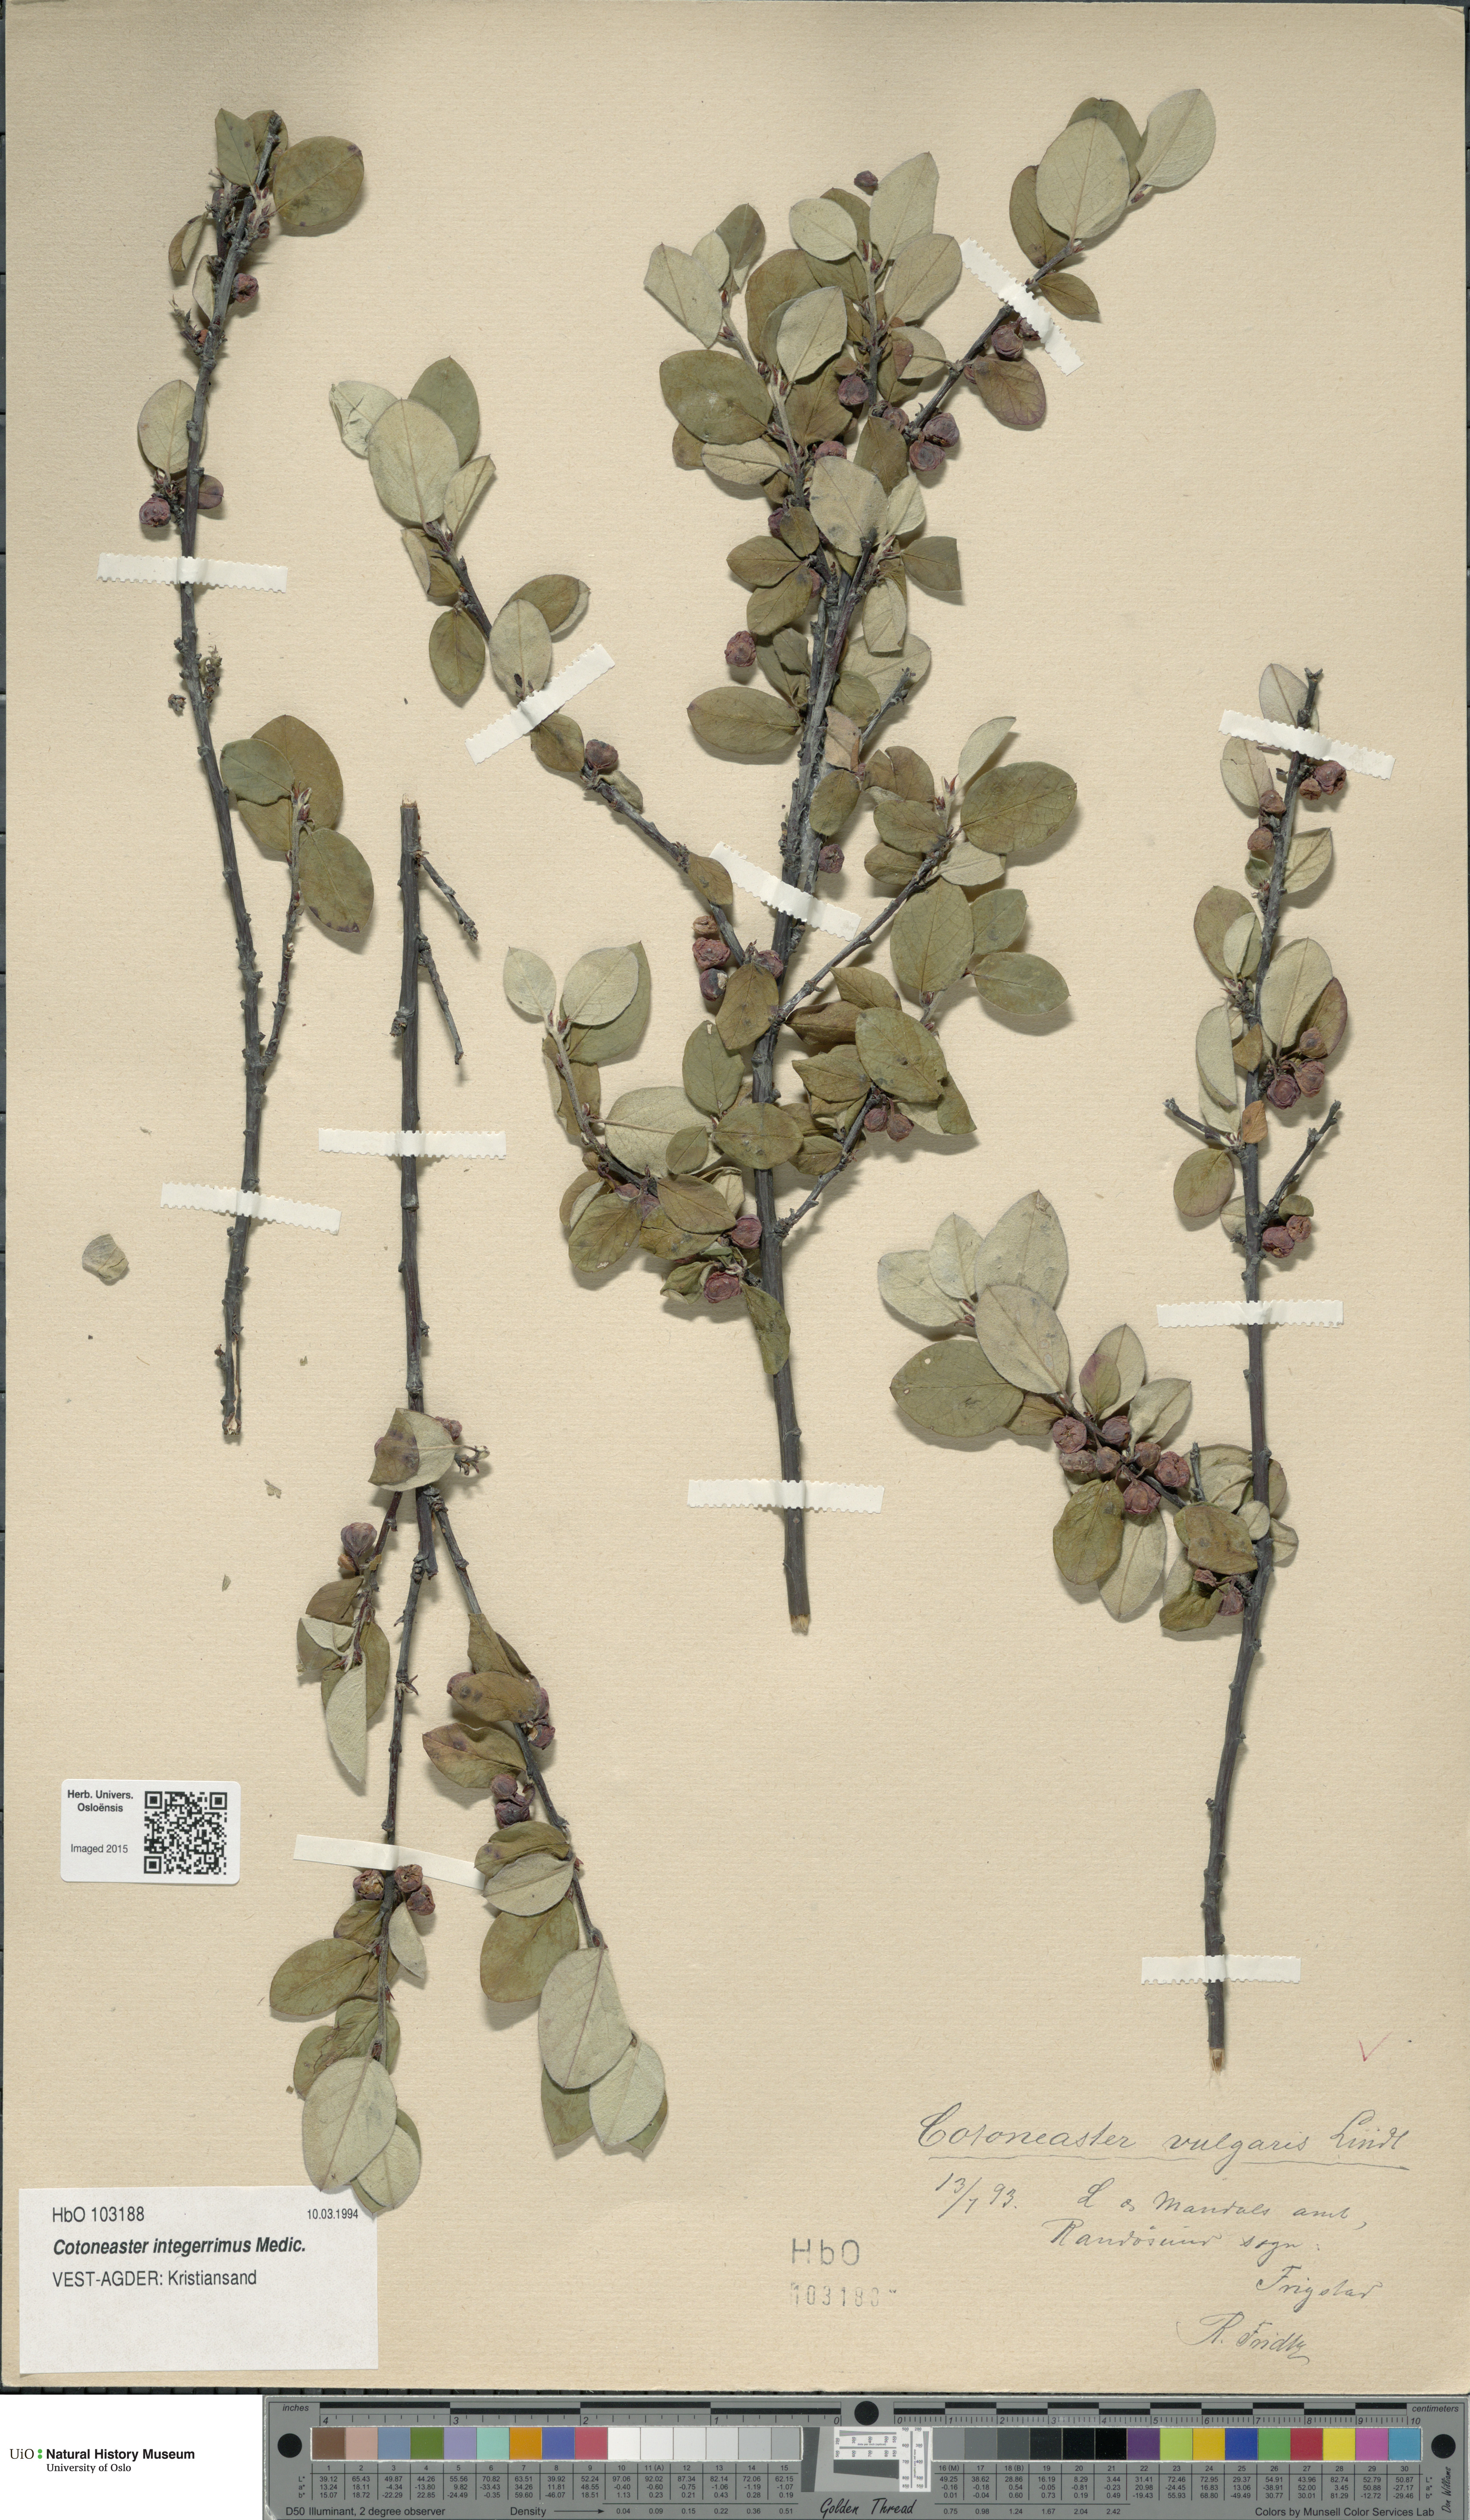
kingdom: Plantae
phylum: Tracheophyta
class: Magnoliopsida
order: Rosales
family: Rosaceae
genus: Cotoneaster
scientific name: Cotoneaster integerrimus
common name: Wild cotoneaster
